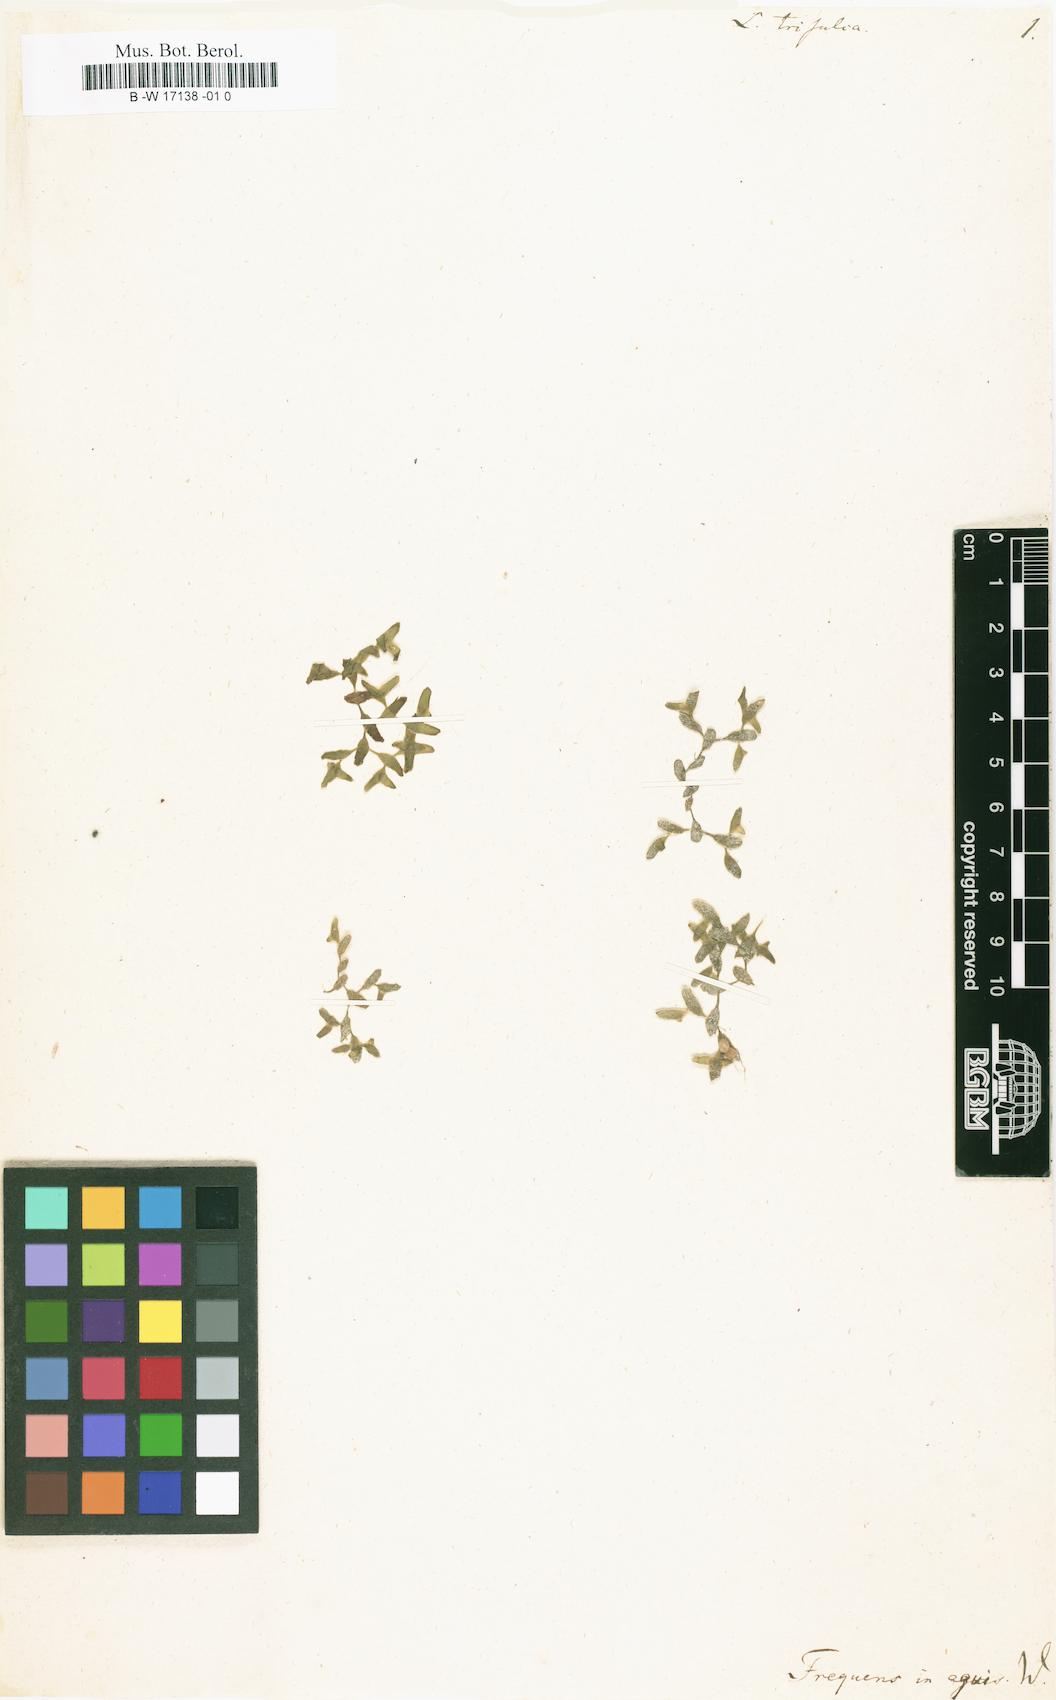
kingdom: Plantae
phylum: Tracheophyta
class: Liliopsida
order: Alismatales
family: Araceae
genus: Lemna
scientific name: Lemna trisulca
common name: Ivy-leaved duckweed
